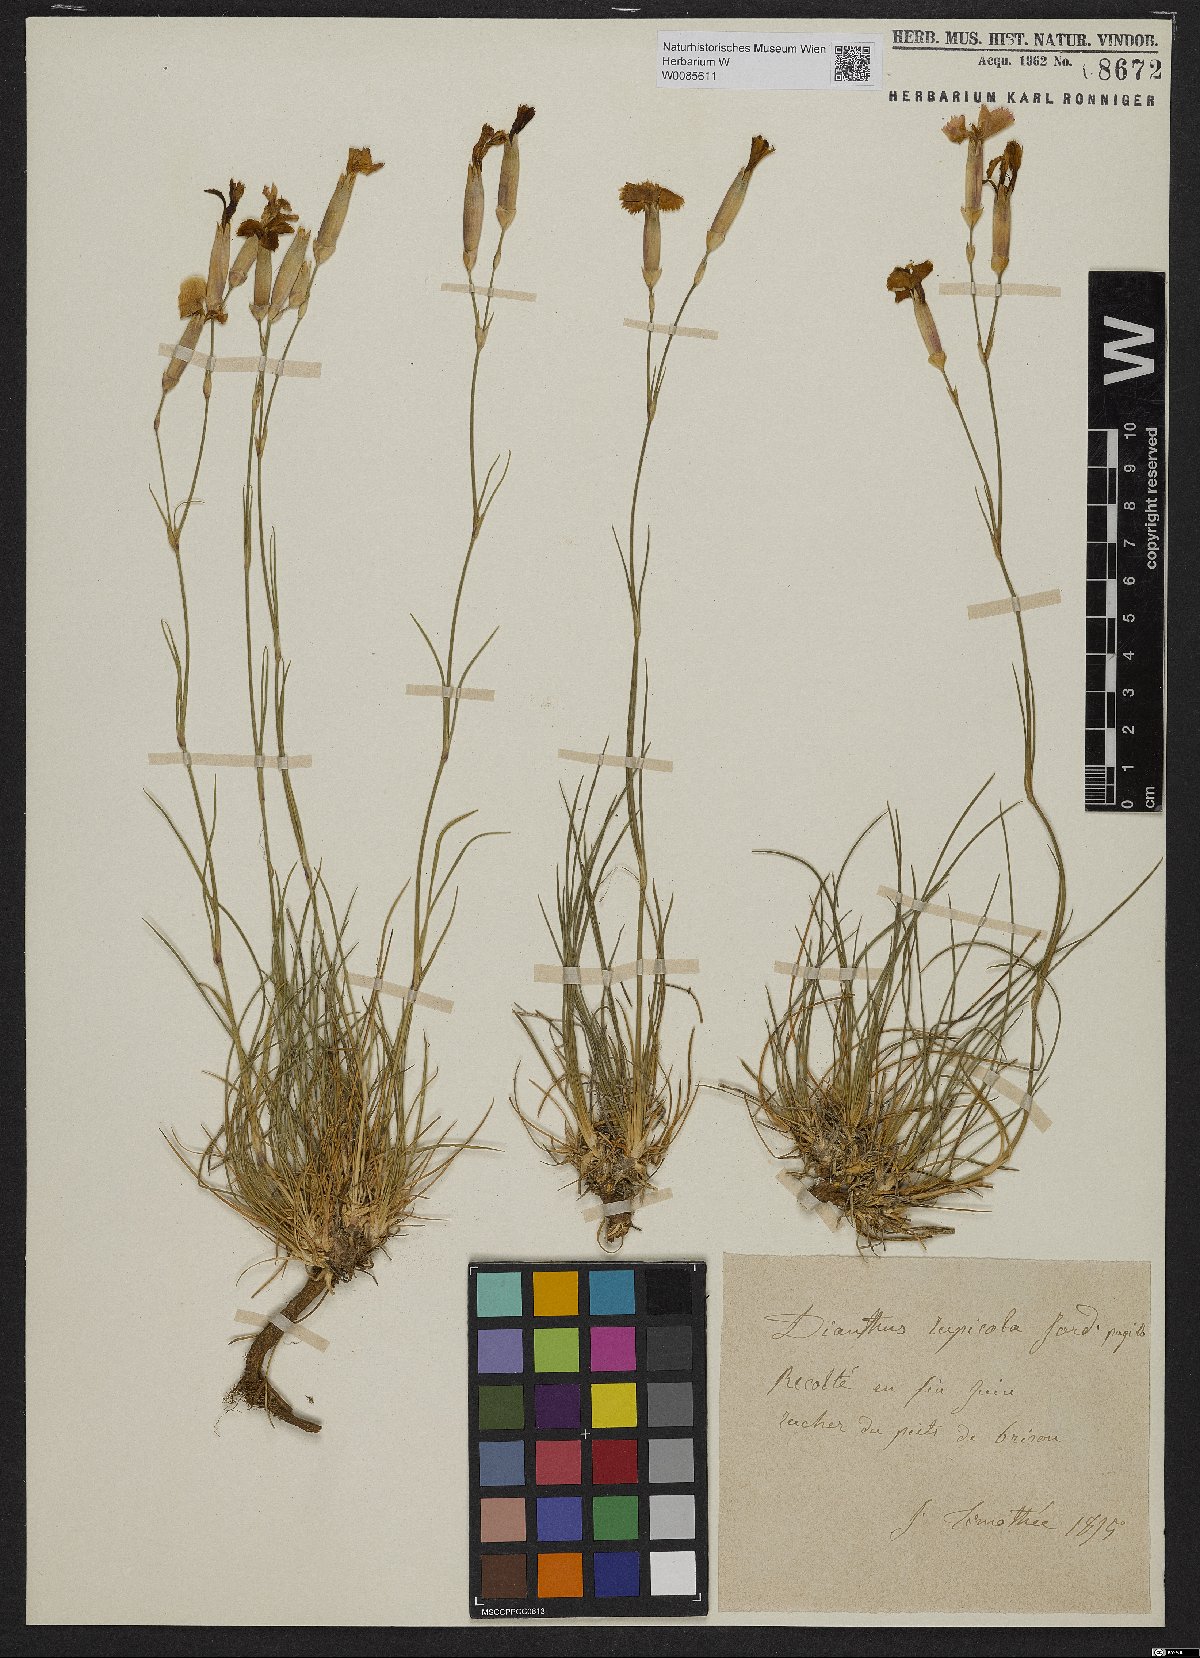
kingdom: Plantae
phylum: Tracheophyta
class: Magnoliopsida
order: Caryophyllales
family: Caryophyllaceae
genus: Dianthus
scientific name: Dianthus rupicola
